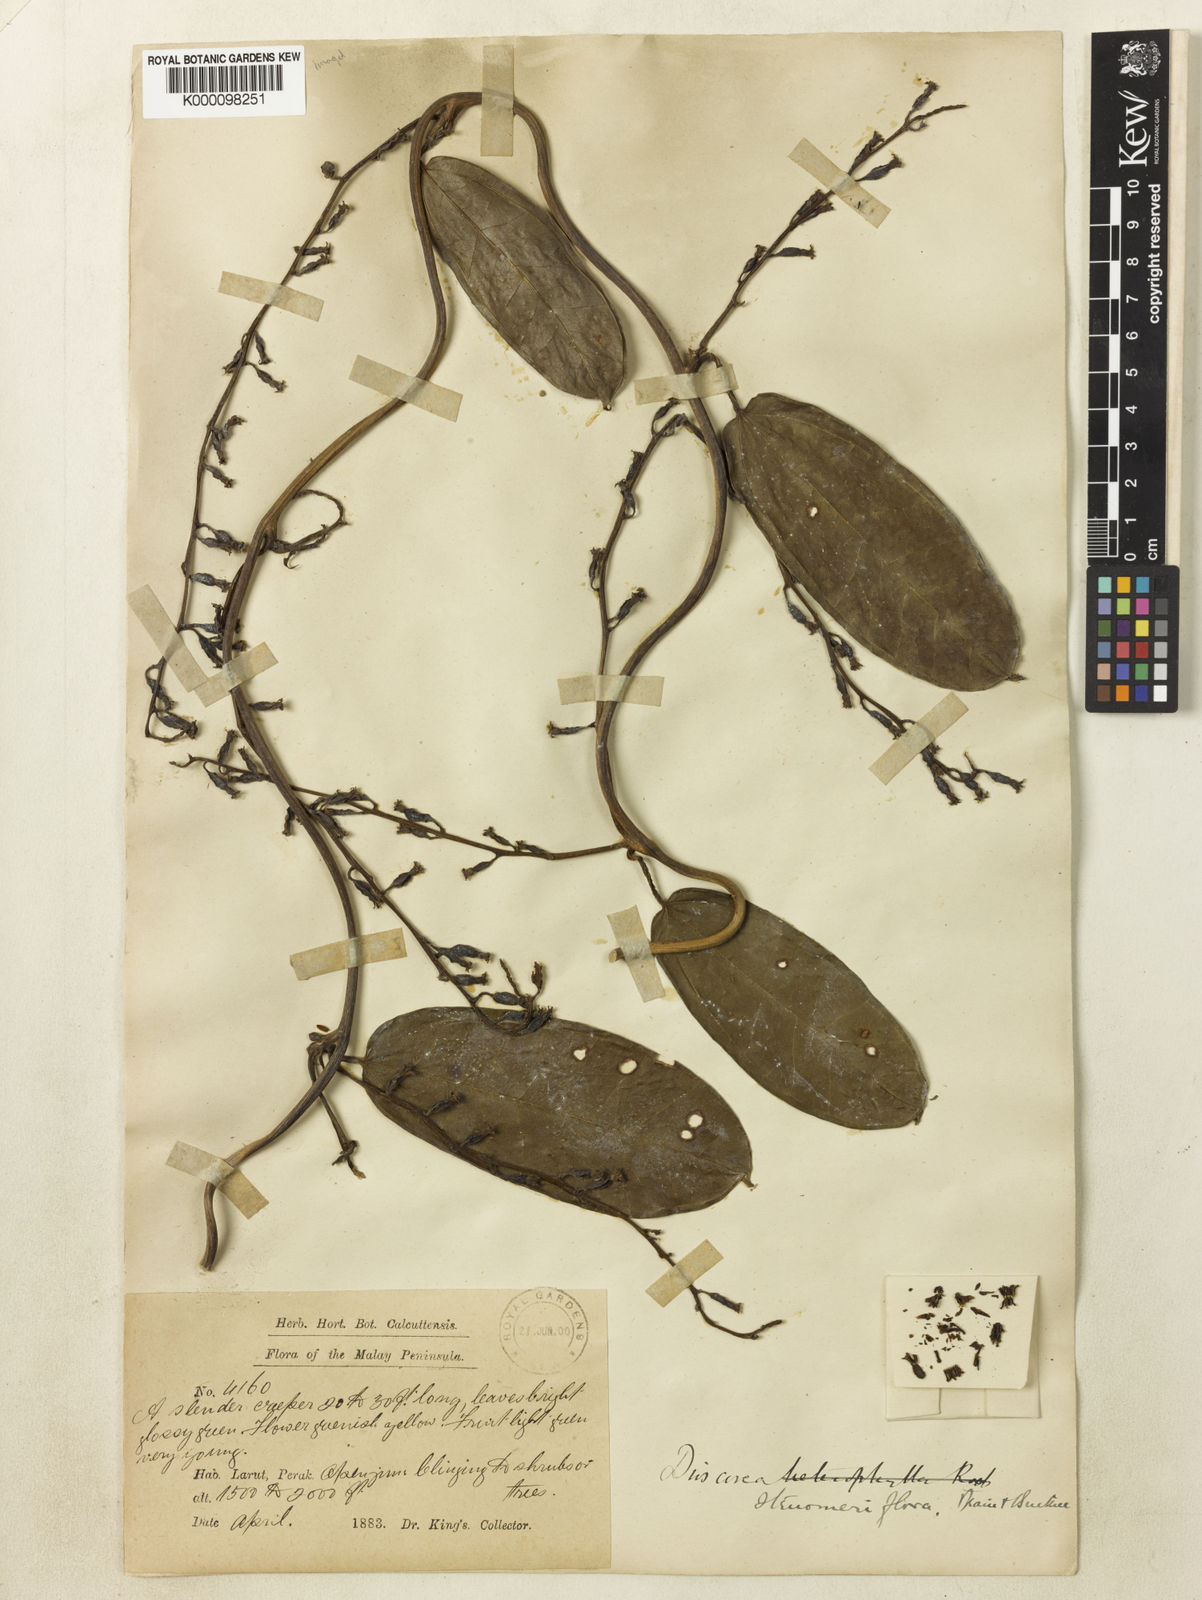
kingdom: Plantae
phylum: Tracheophyta
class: Liliopsida
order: Dioscoreales
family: Dioscoreaceae
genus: Dioscorea
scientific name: Dioscorea stenomeriflora
